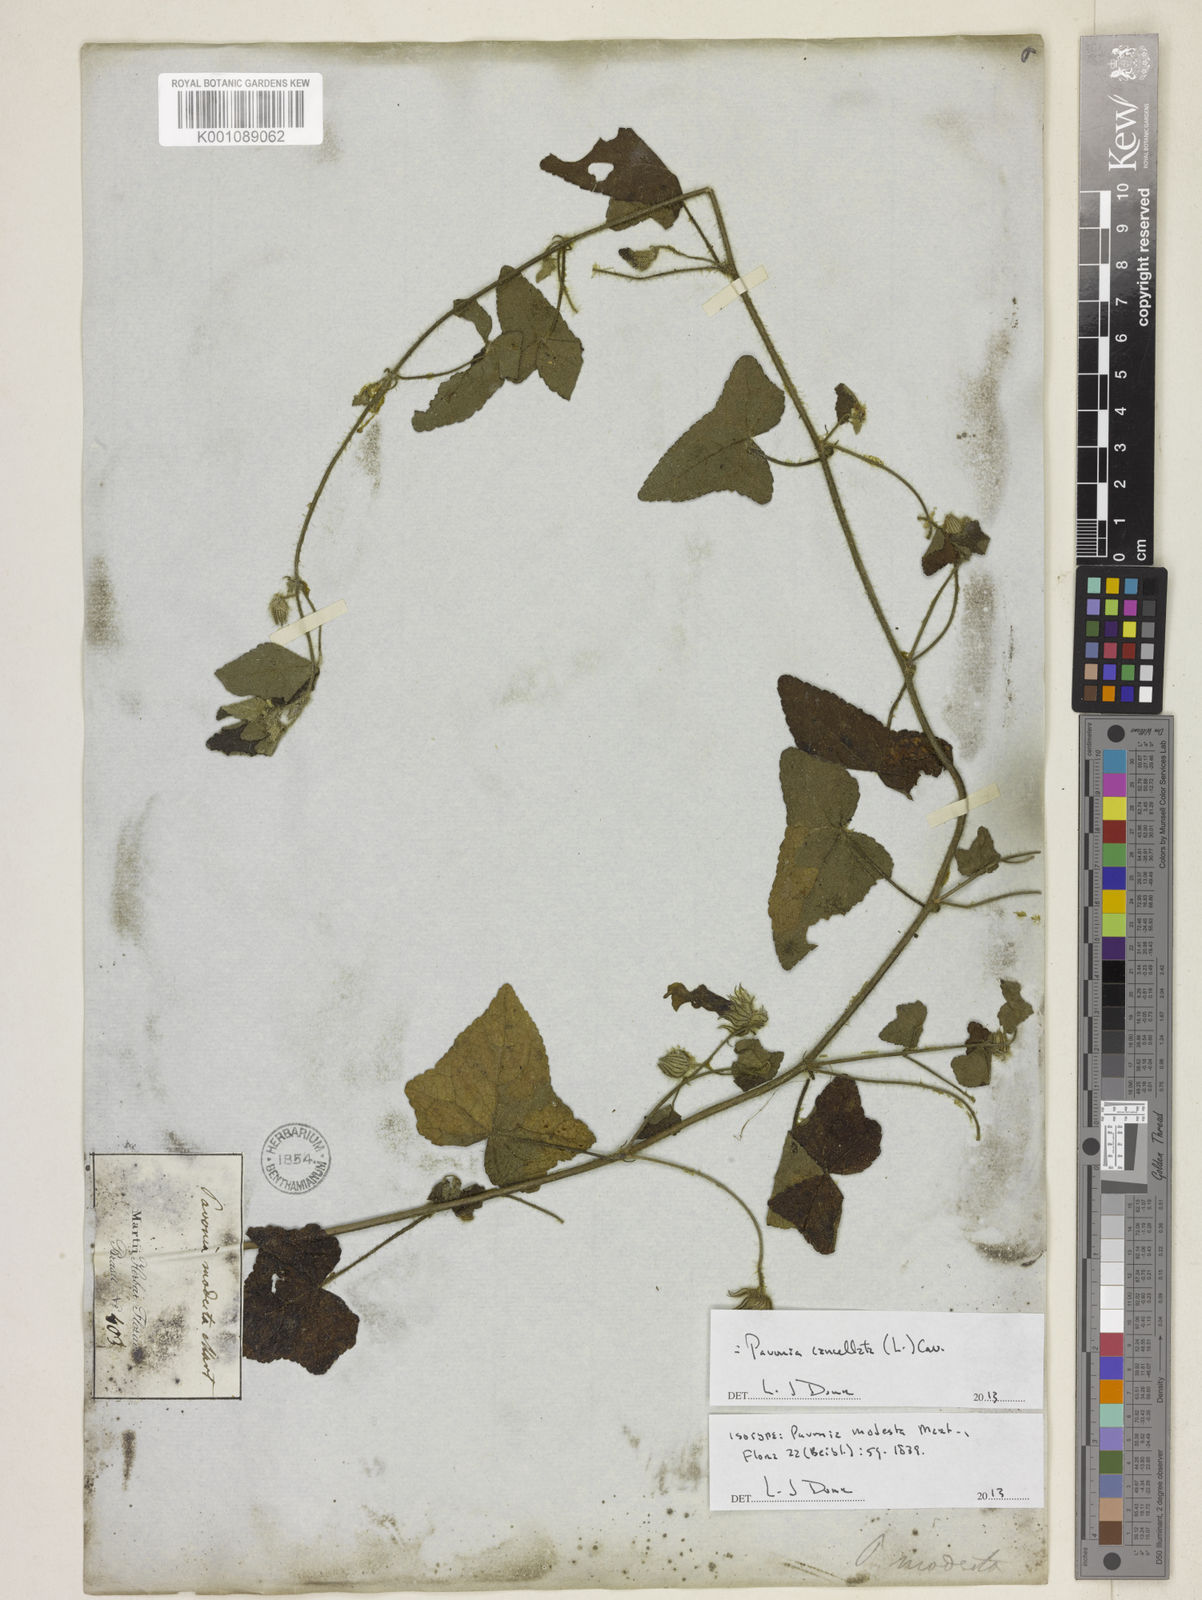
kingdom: Plantae
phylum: Tracheophyta
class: Magnoliopsida
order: Malvales
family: Malvaceae
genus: Pavonia
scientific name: Pavonia cancellata
